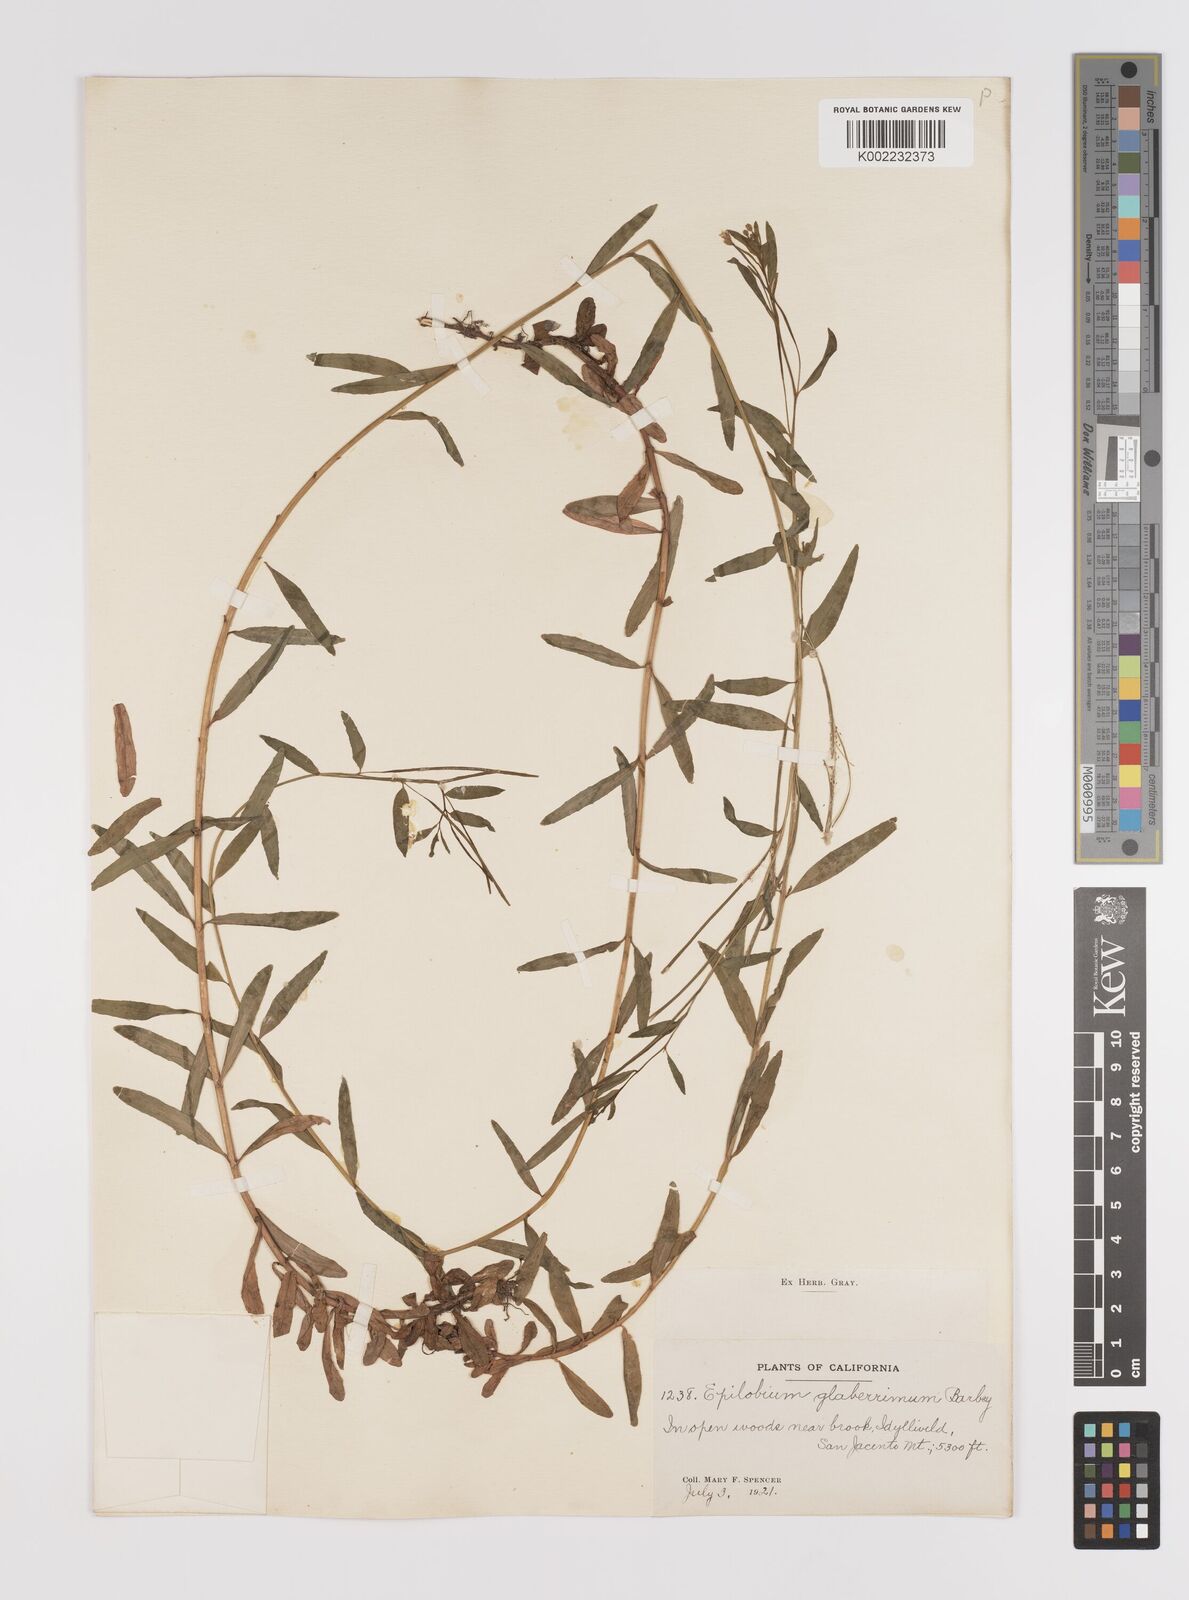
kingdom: Plantae
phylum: Tracheophyta
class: Magnoliopsida
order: Myrtales
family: Onagraceae
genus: Epilobium
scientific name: Epilobium glaberrimum
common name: Glaucous willowherb
